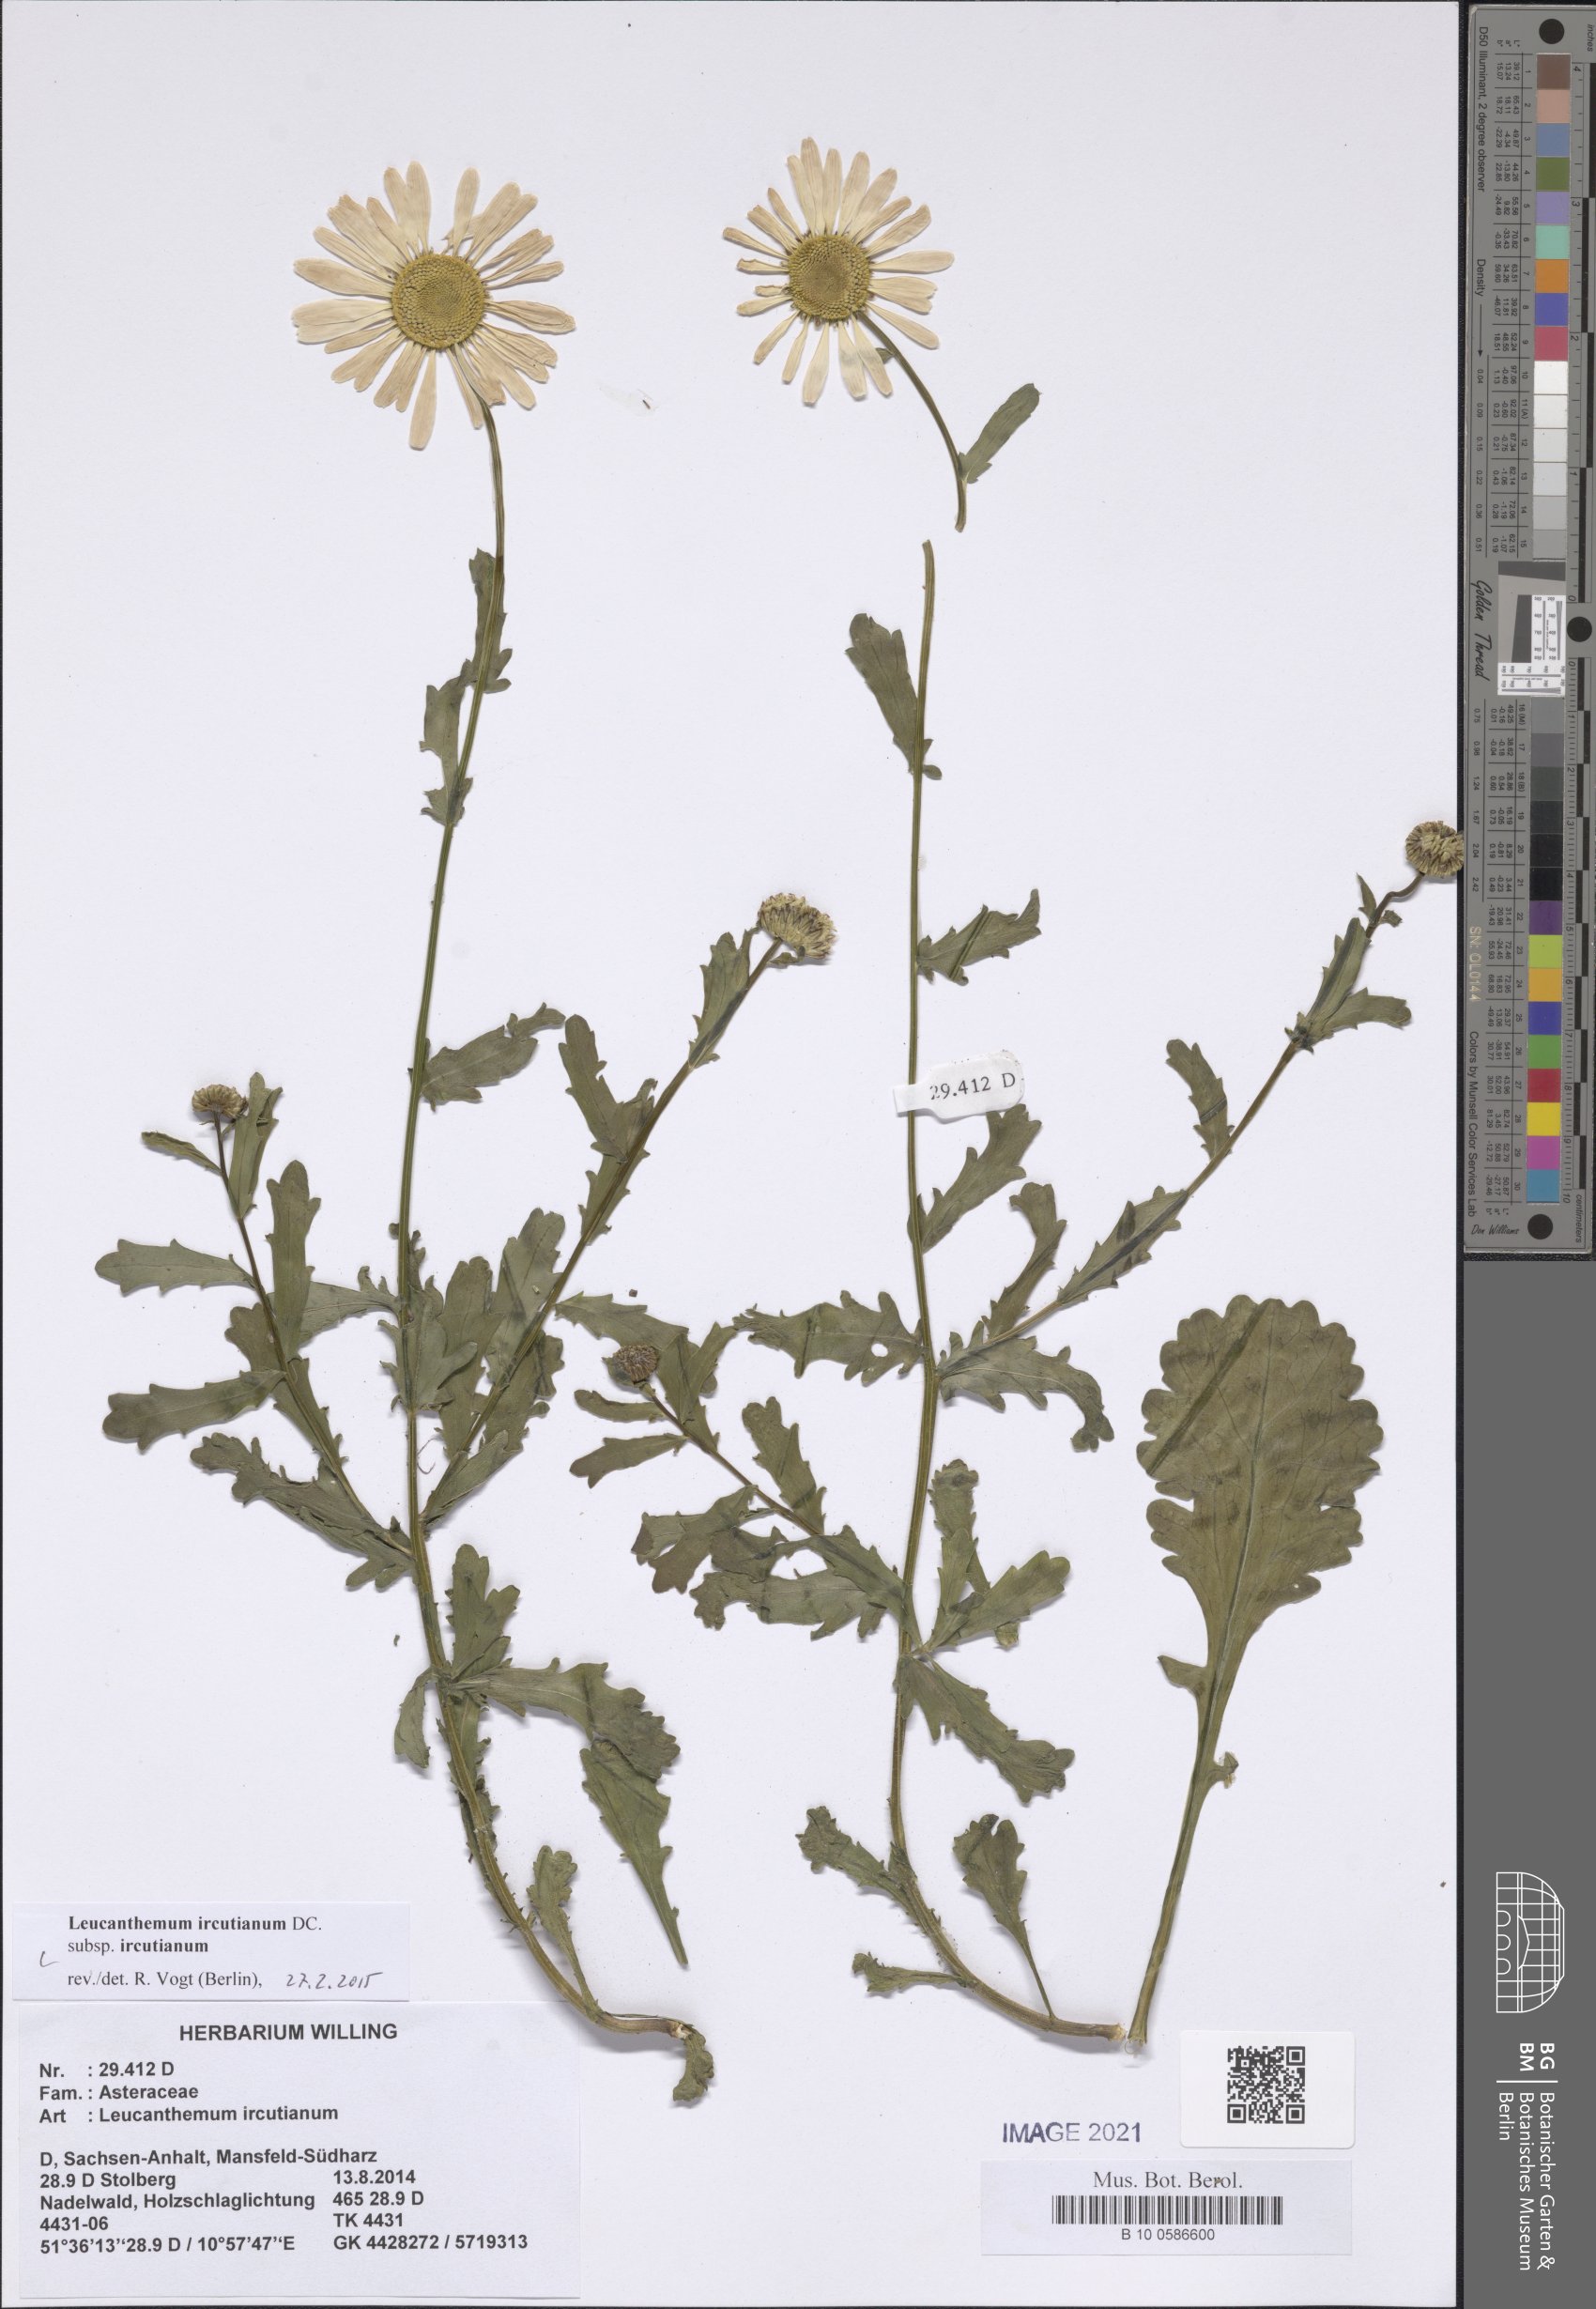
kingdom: Plantae
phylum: Tracheophyta
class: Magnoliopsida
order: Asterales
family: Asteraceae
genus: Leucanthemum
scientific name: Leucanthemum ircutianum
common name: Daisy
